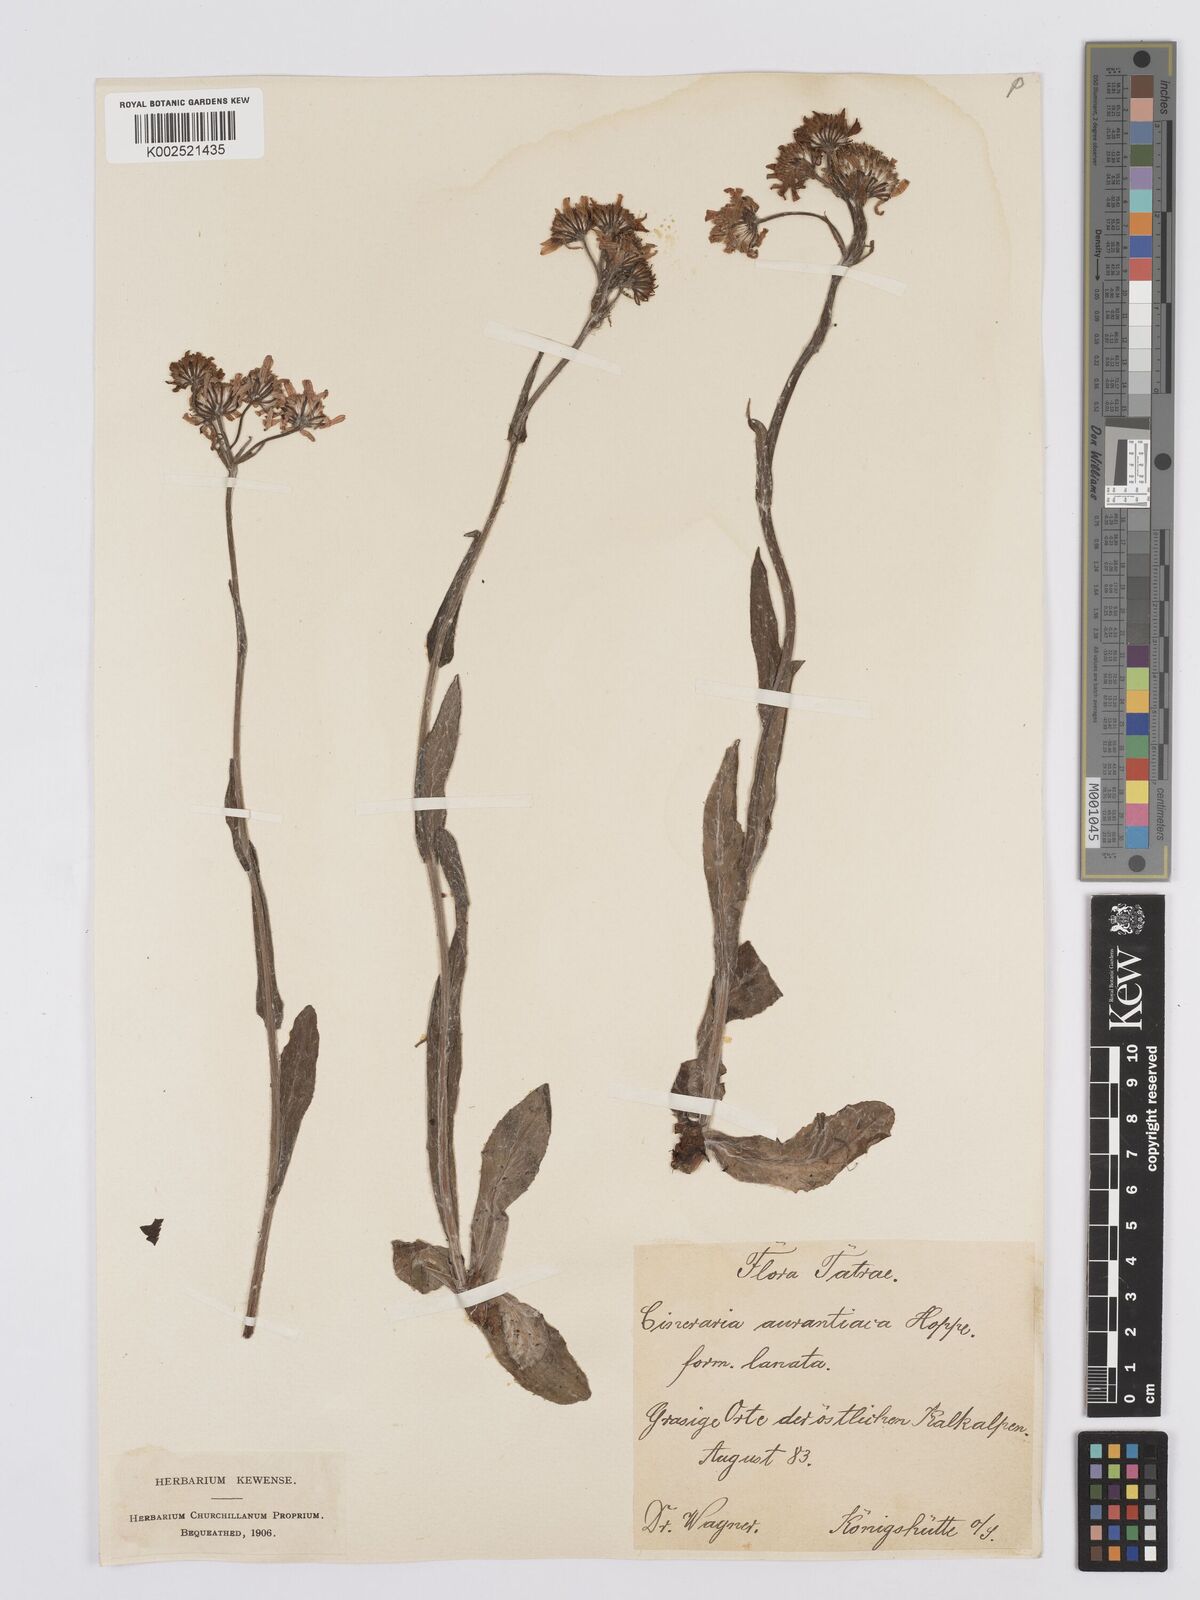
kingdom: Plantae
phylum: Tracheophyta
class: Magnoliopsida
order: Asterales
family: Asteraceae
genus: Tephroseris
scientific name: Tephroseris aurantiaca
